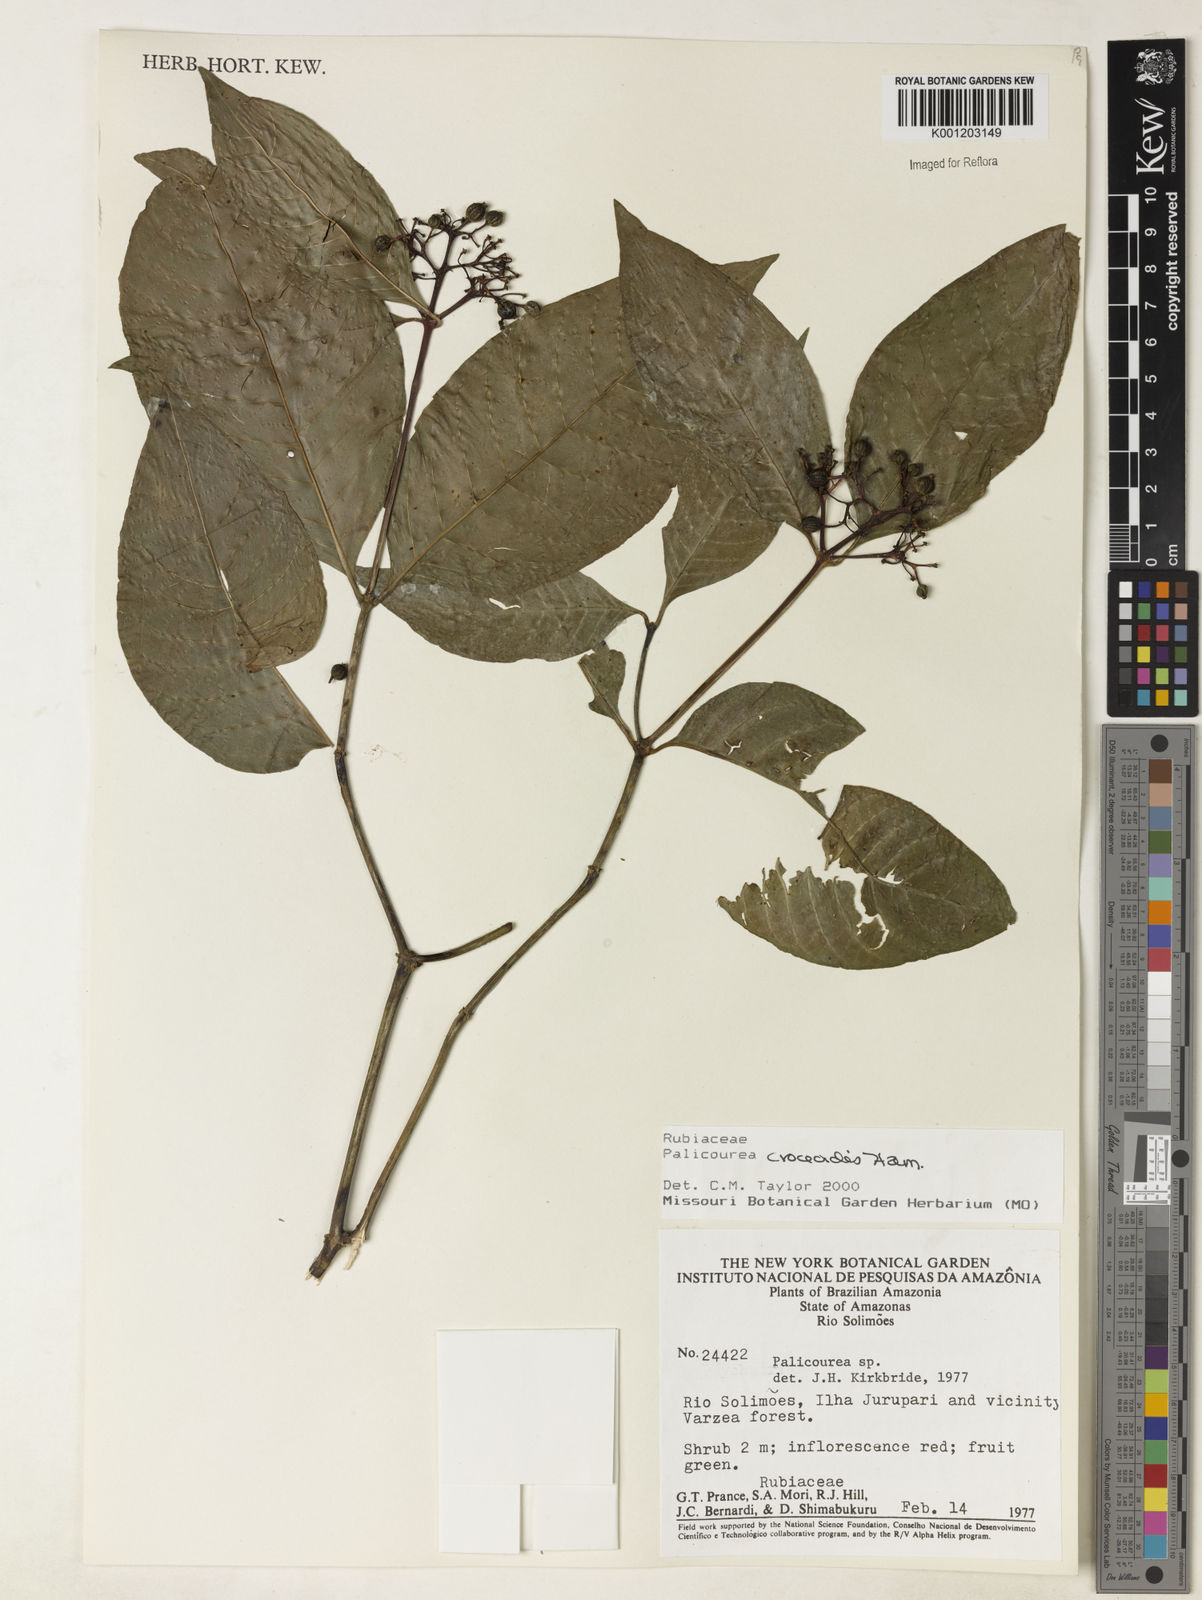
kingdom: Plantae
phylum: Tracheophyta
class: Magnoliopsida
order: Gentianales
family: Rubiaceae
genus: Palicourea
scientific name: Palicourea croceoides
